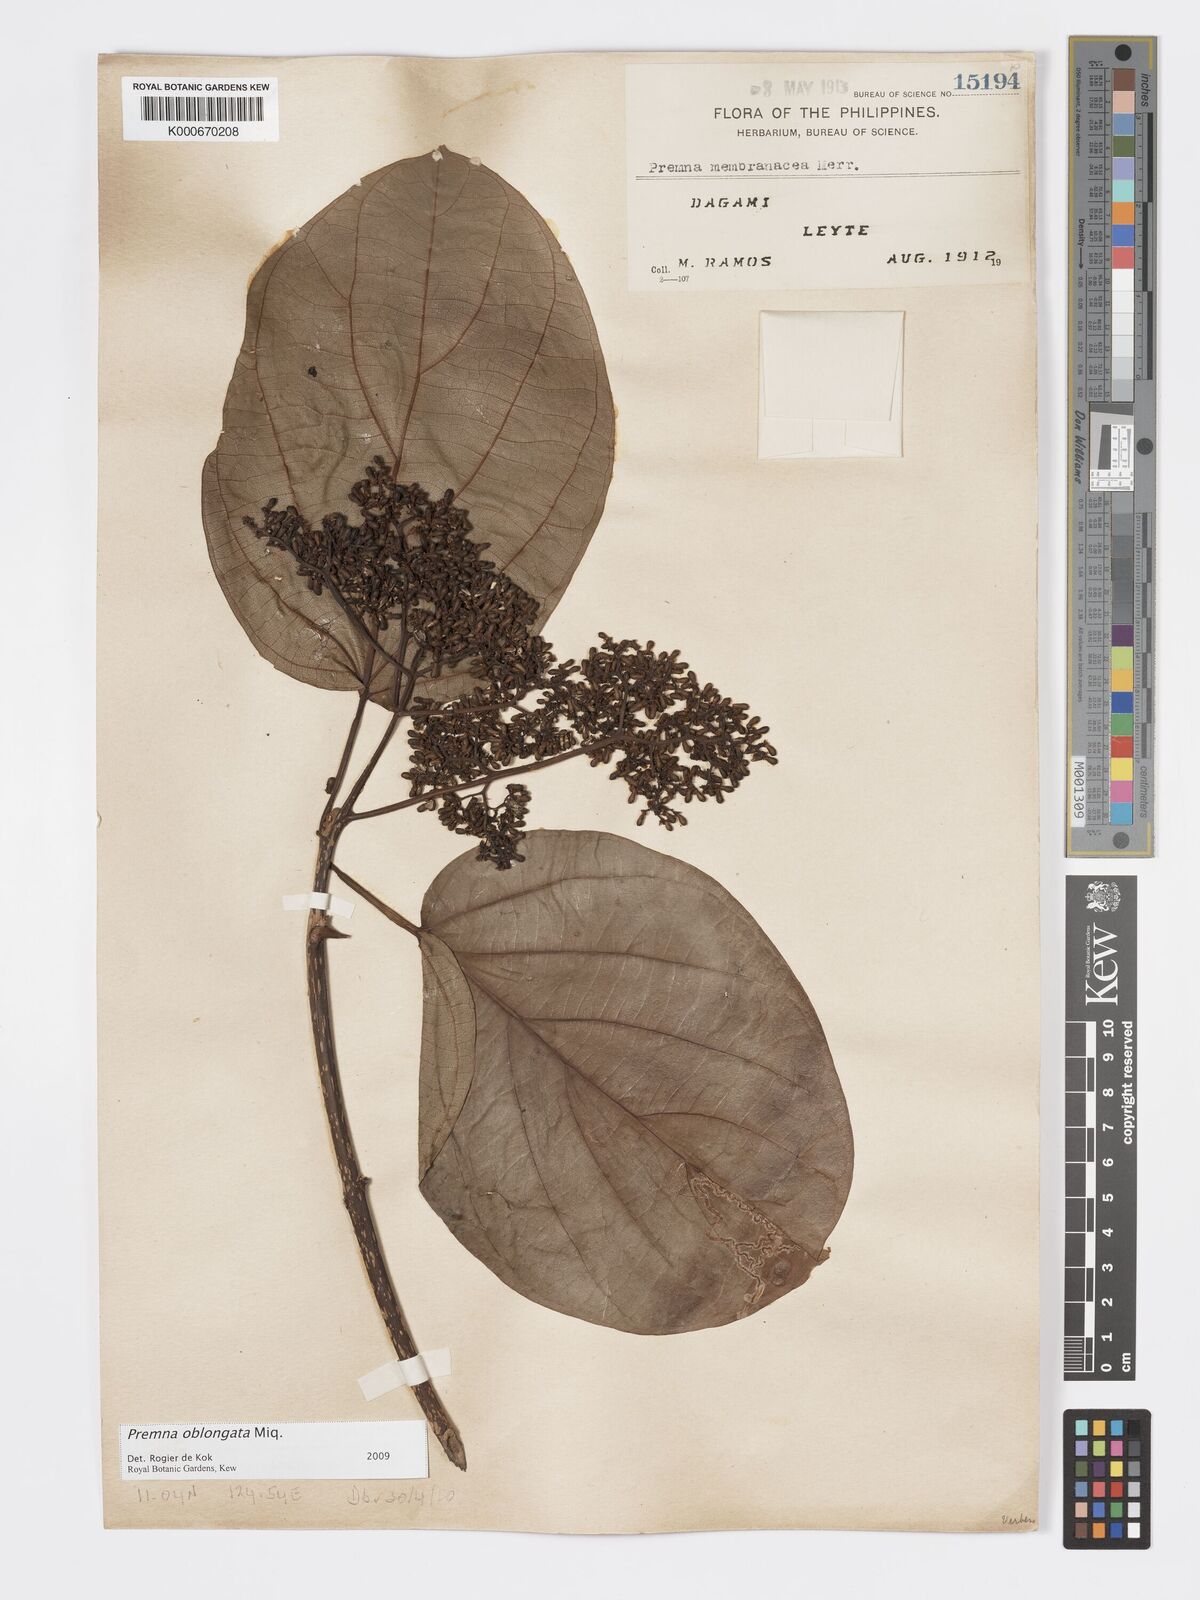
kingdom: Plantae
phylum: Tracheophyta
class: Magnoliopsida
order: Lamiales
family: Lamiaceae
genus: Premna
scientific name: Premna oblongata
